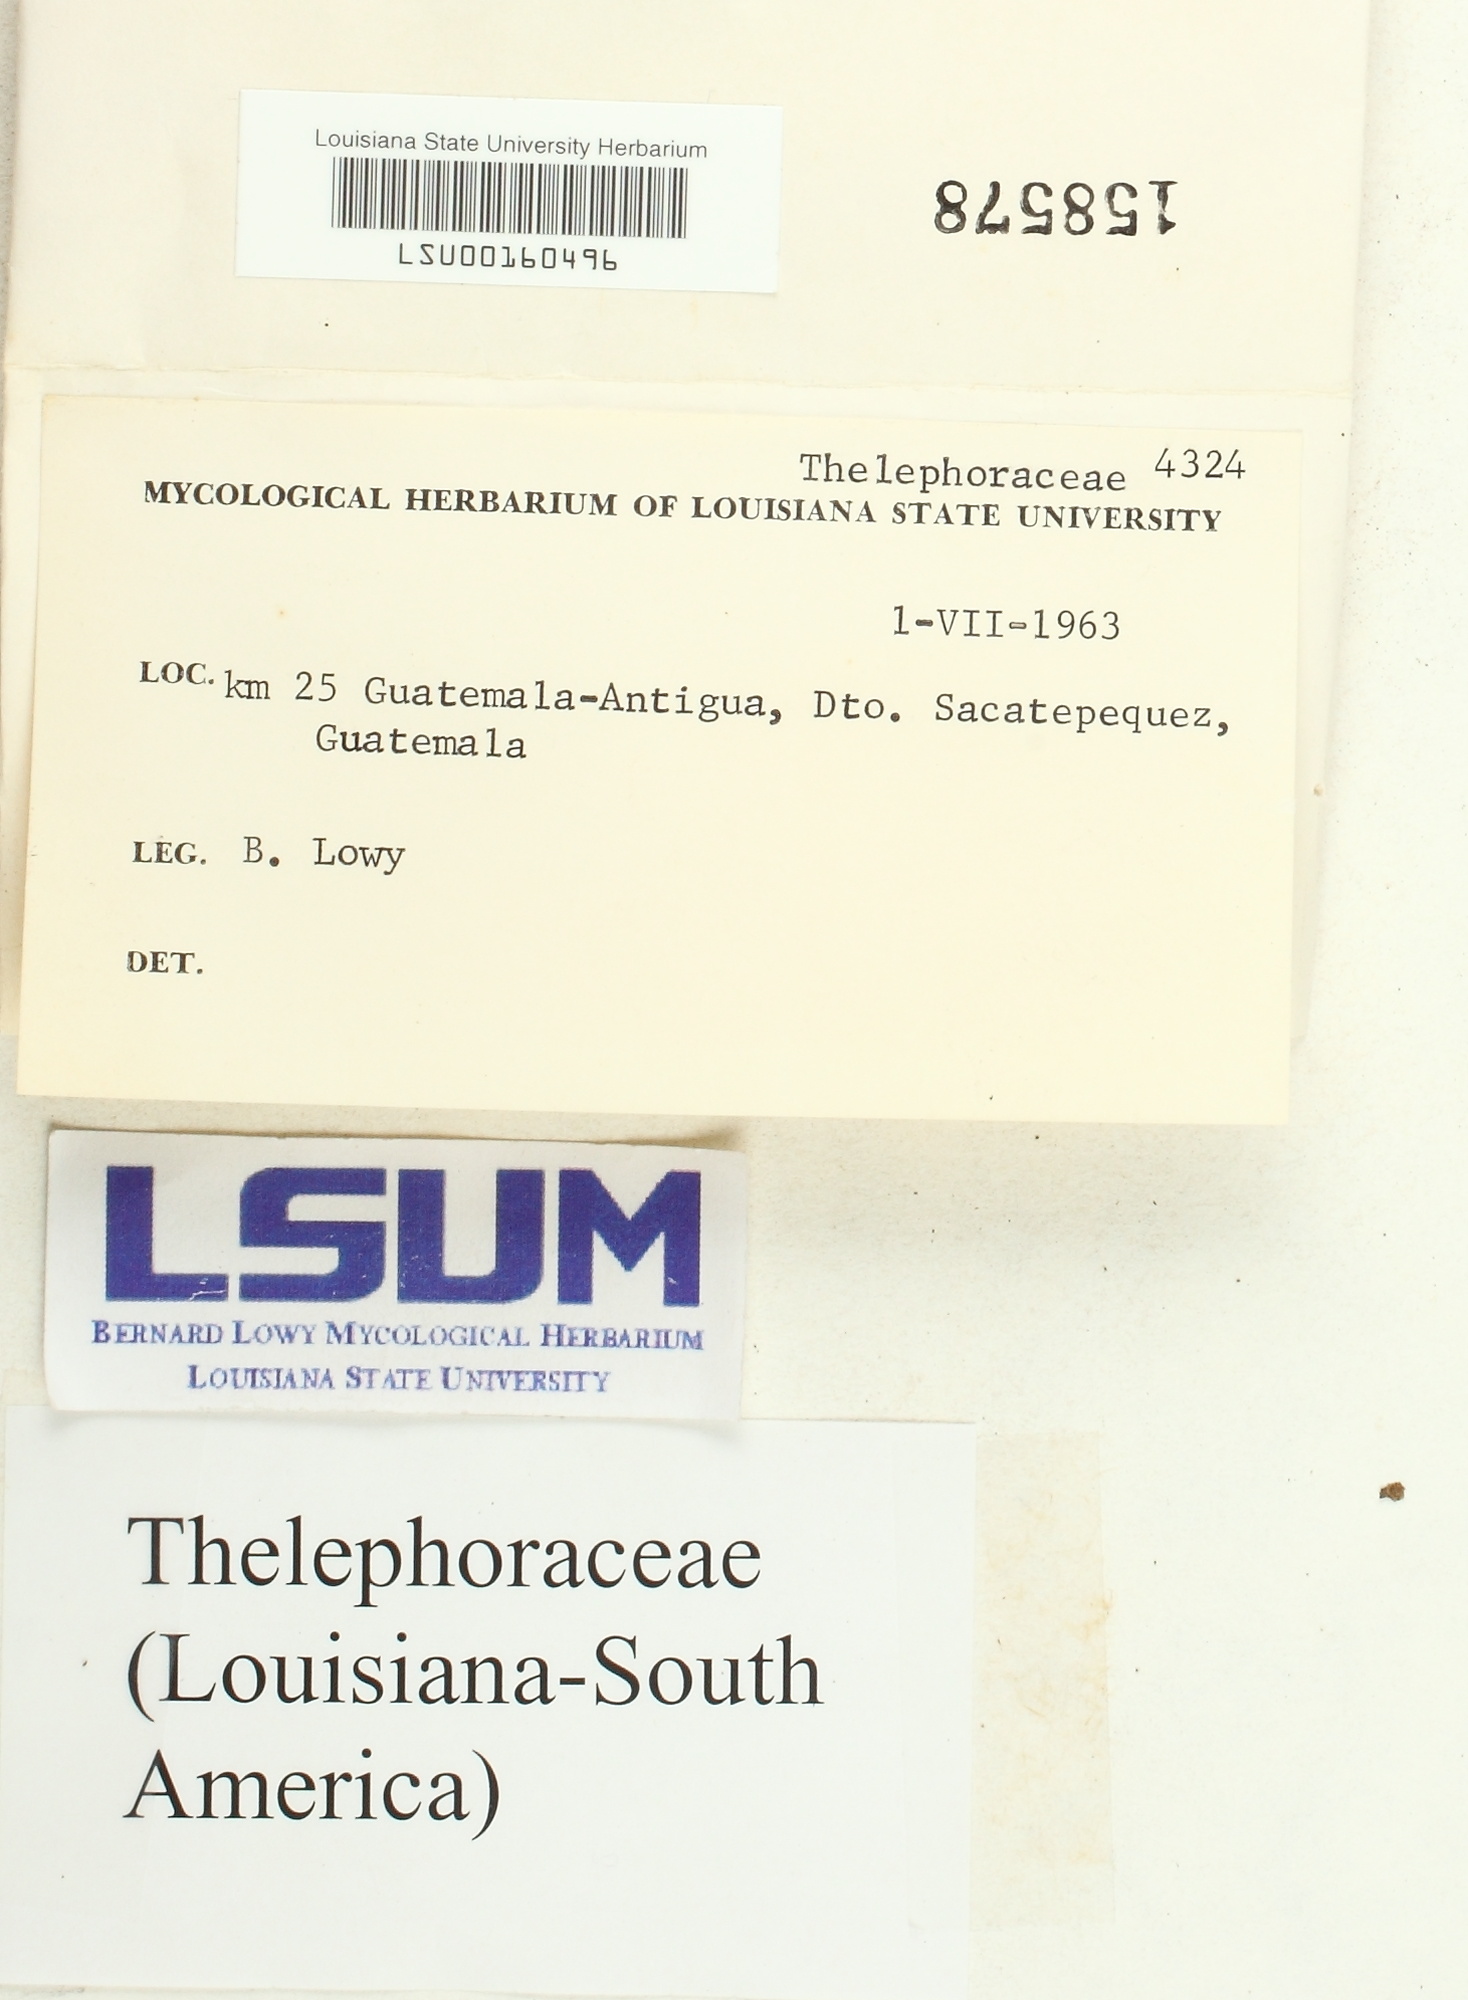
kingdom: Fungi
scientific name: Fungi
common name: Fungi
